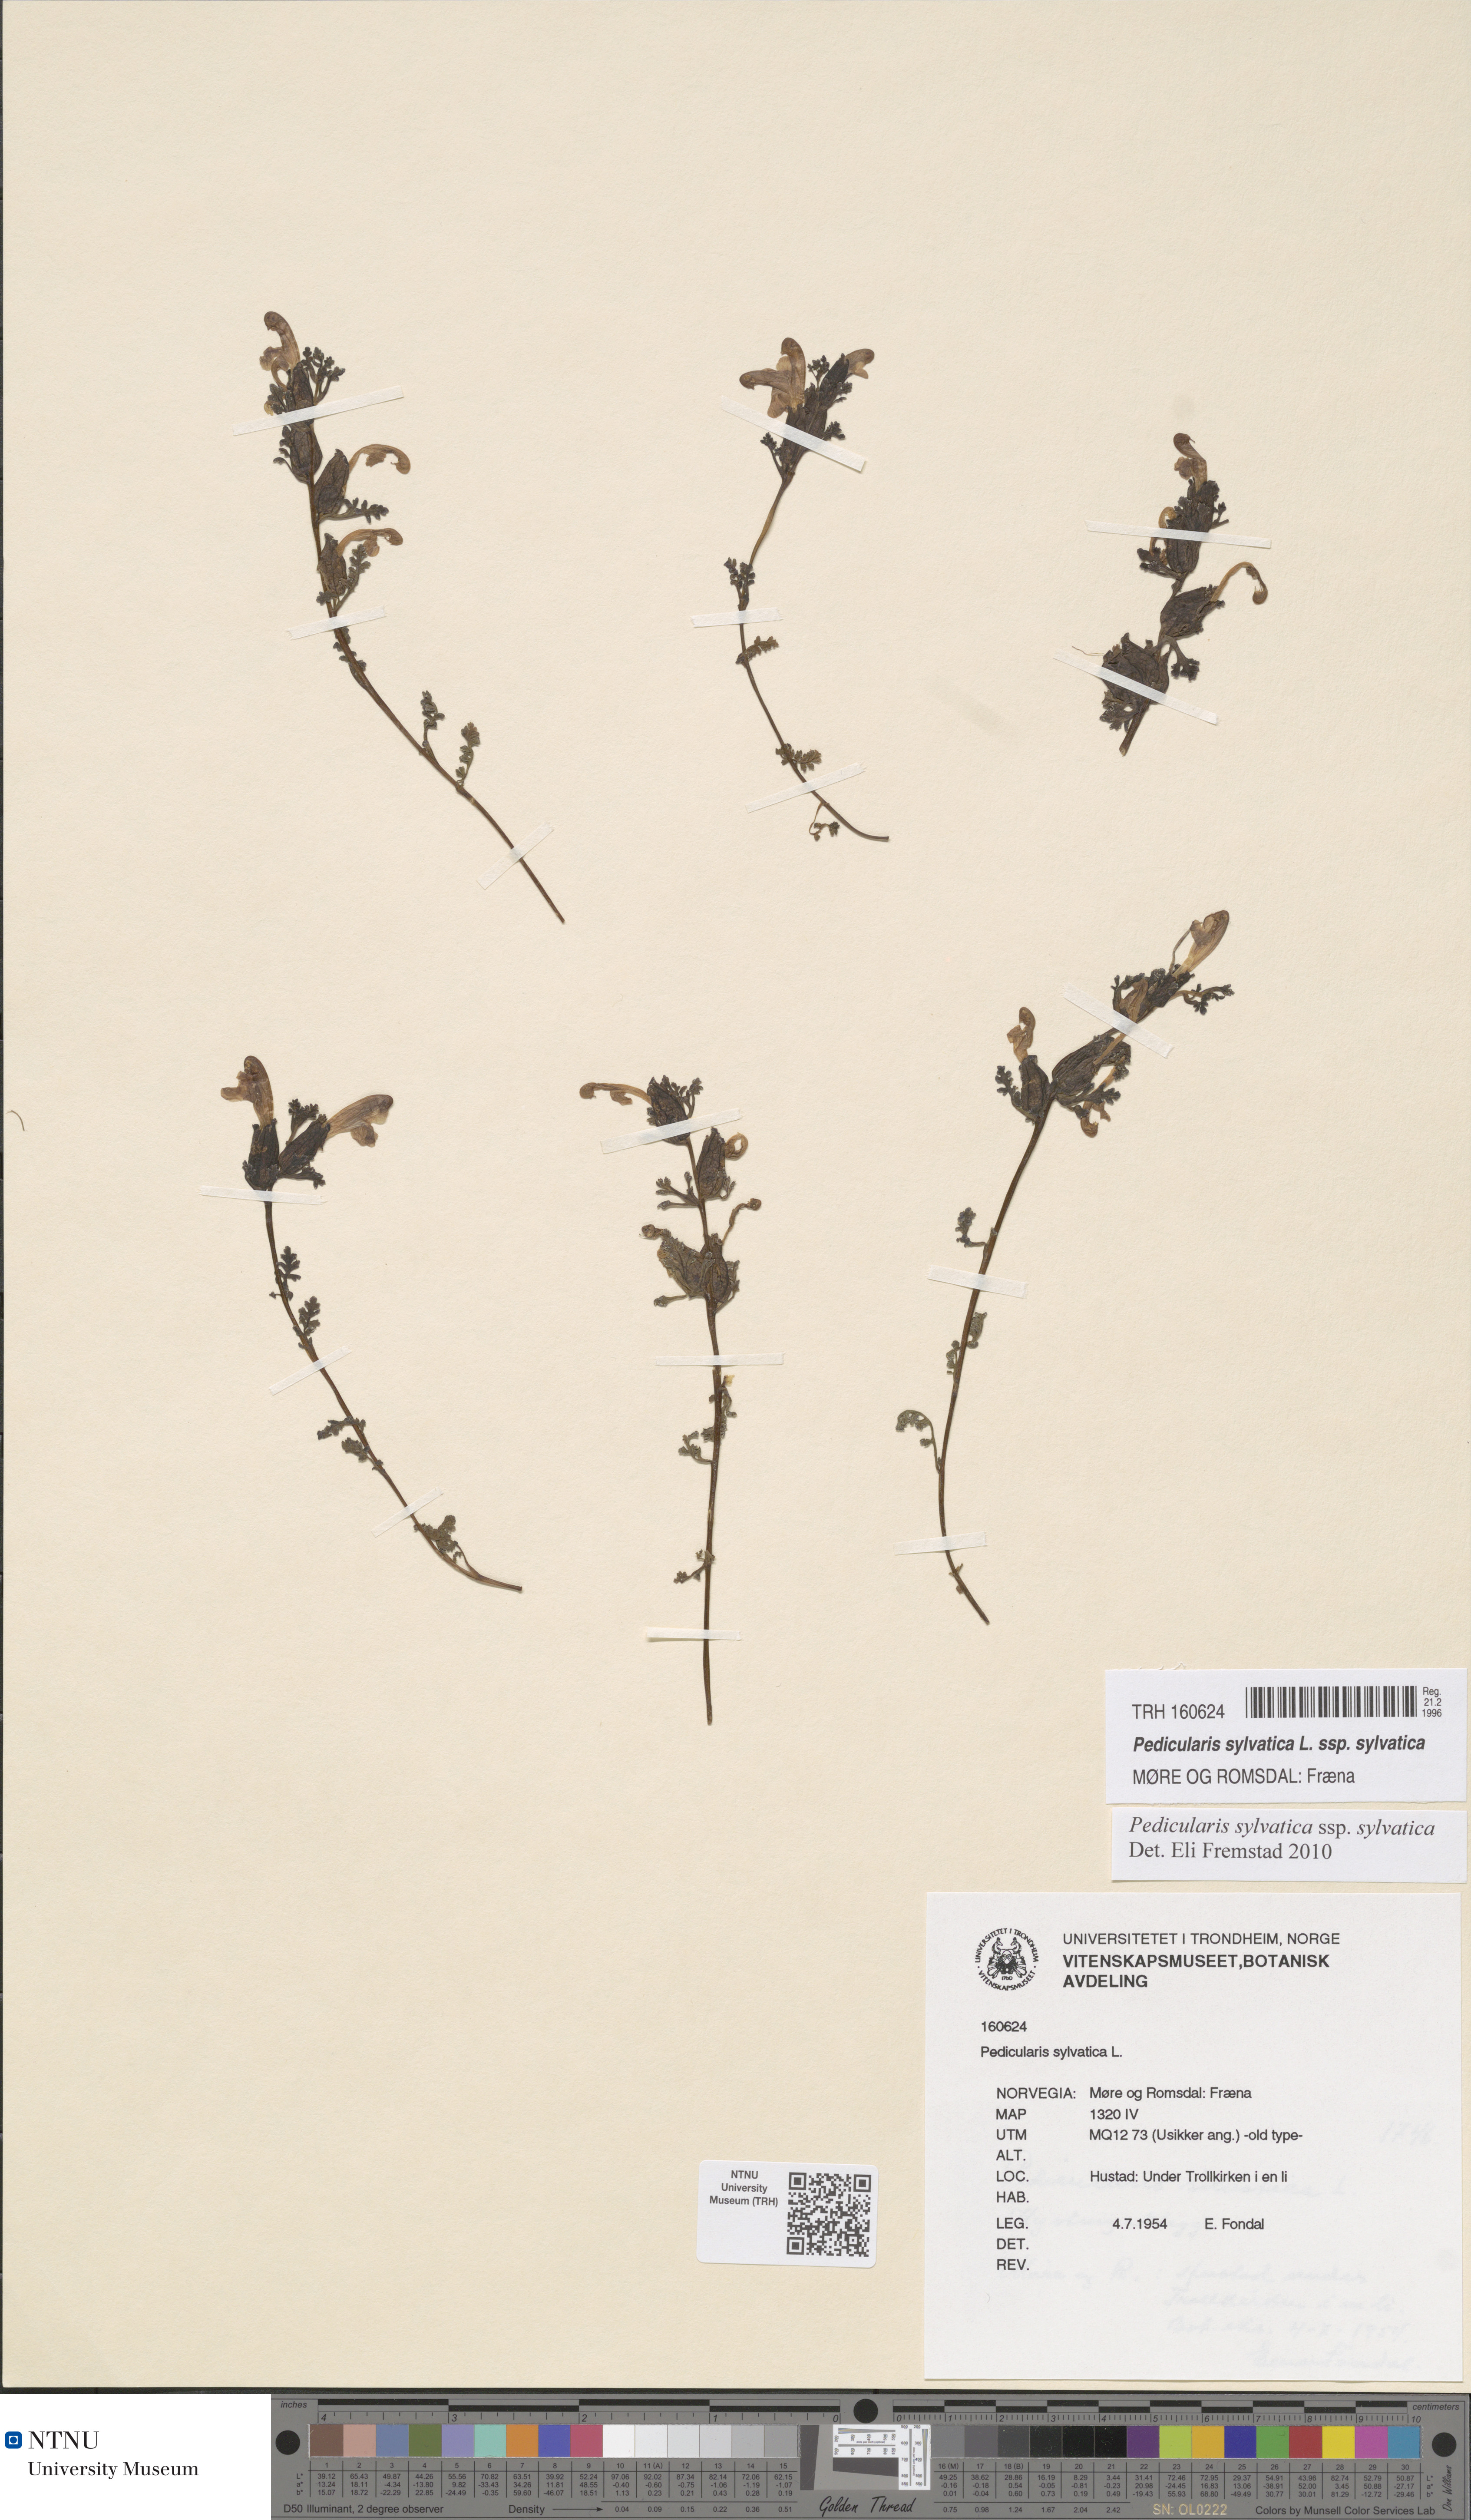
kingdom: Plantae
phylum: Tracheophyta
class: Magnoliopsida
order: Lamiales
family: Orobanchaceae
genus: Pedicularis
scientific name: Pedicularis sylvatica
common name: Lousewort
